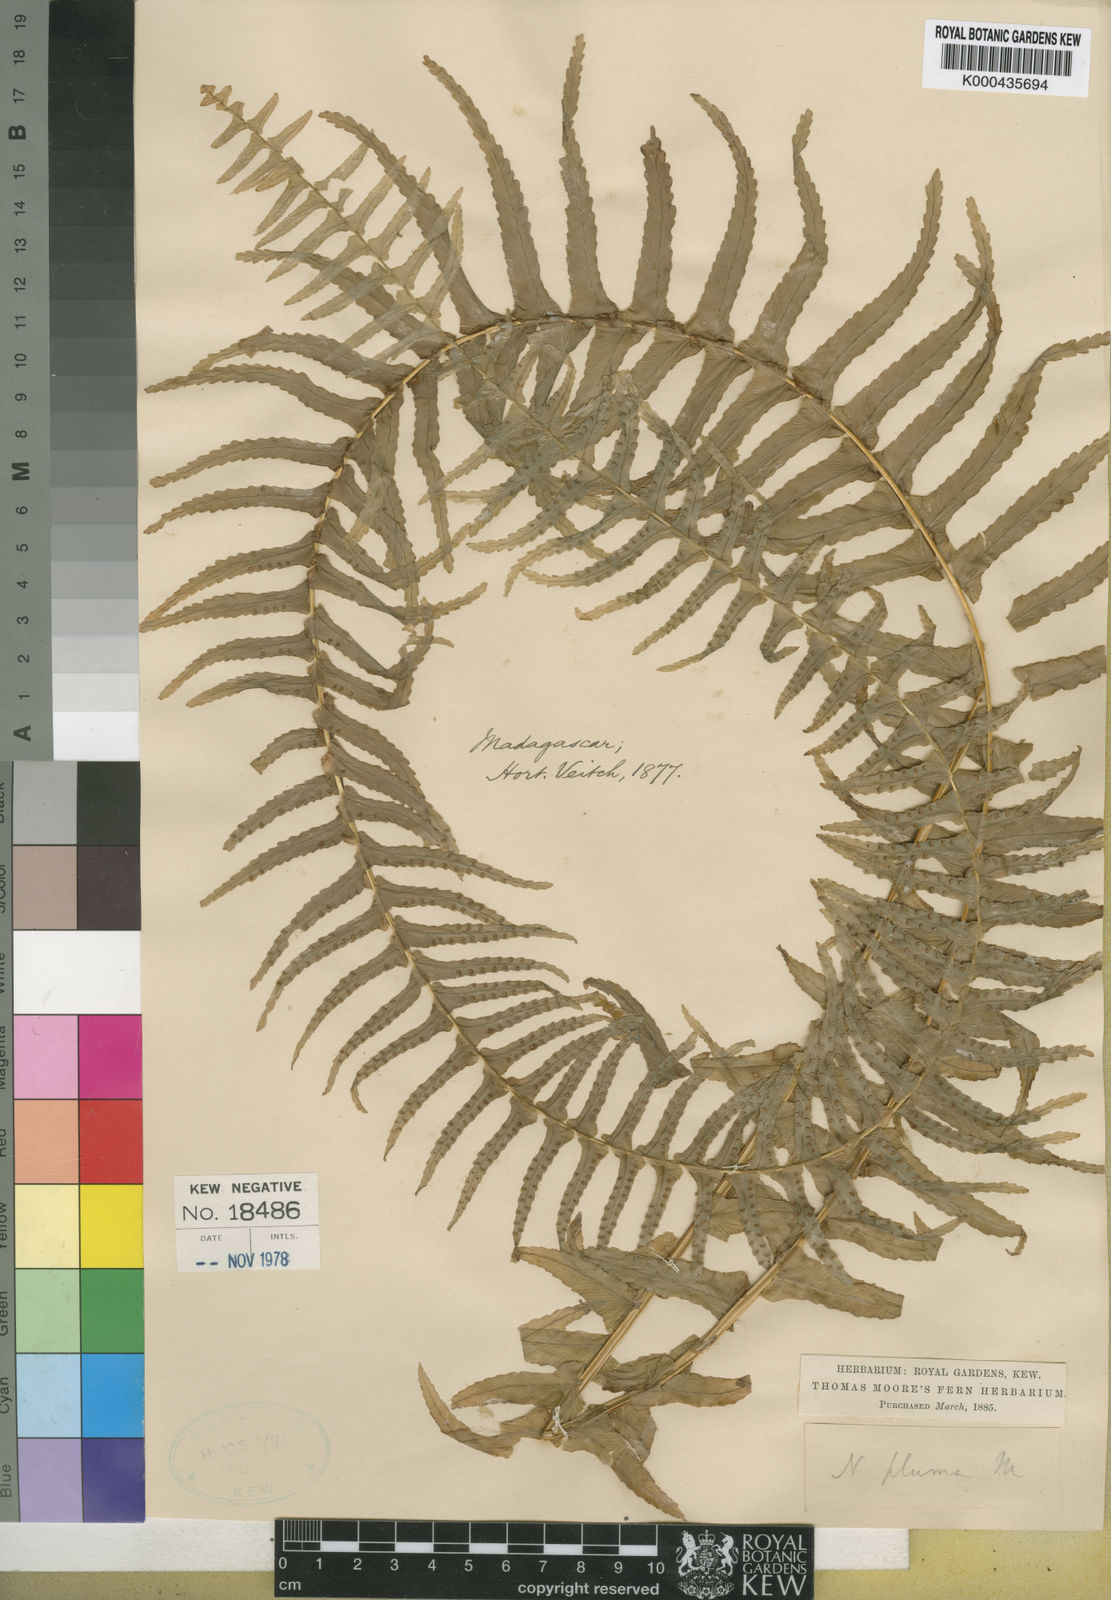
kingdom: Plantae
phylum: Tracheophyta
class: Polypodiopsida
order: Polypodiales
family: Nephrolepidaceae
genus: Nephrolepis
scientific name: Nephrolepis undulata
